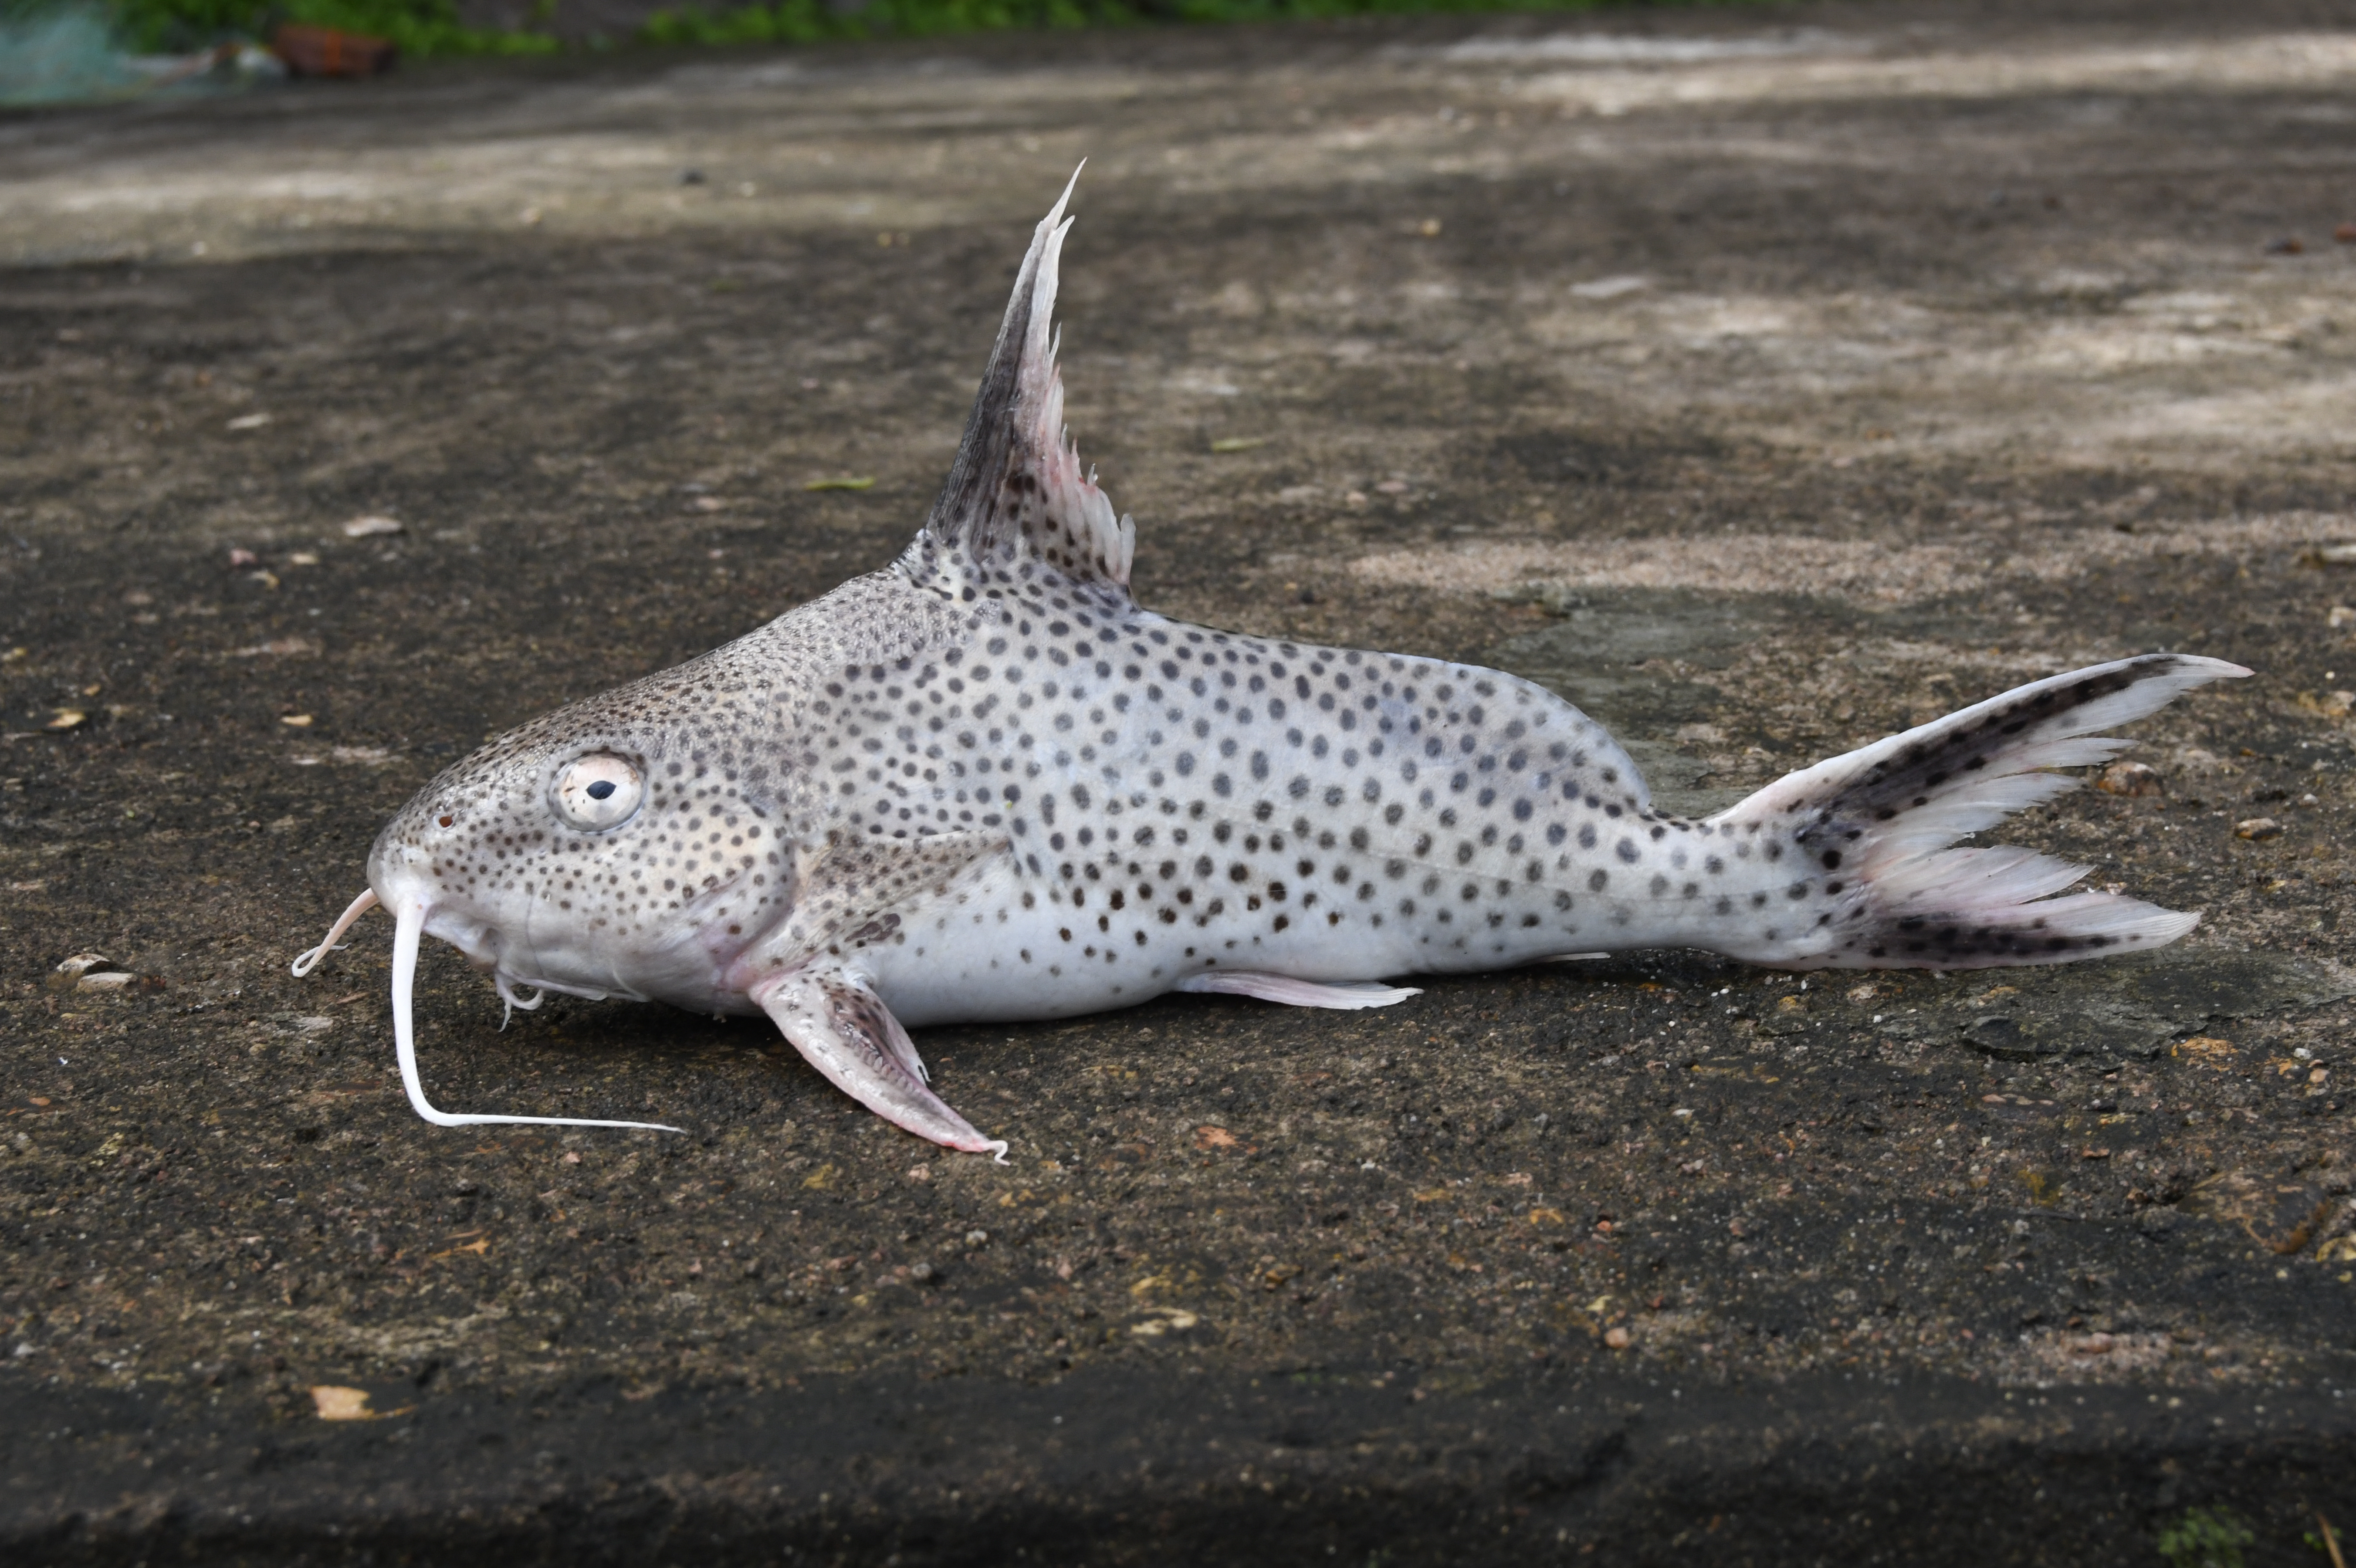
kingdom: Animalia
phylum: Chordata
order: Siluriformes
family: Mochokidae
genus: Synodontis
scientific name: Synodontis
